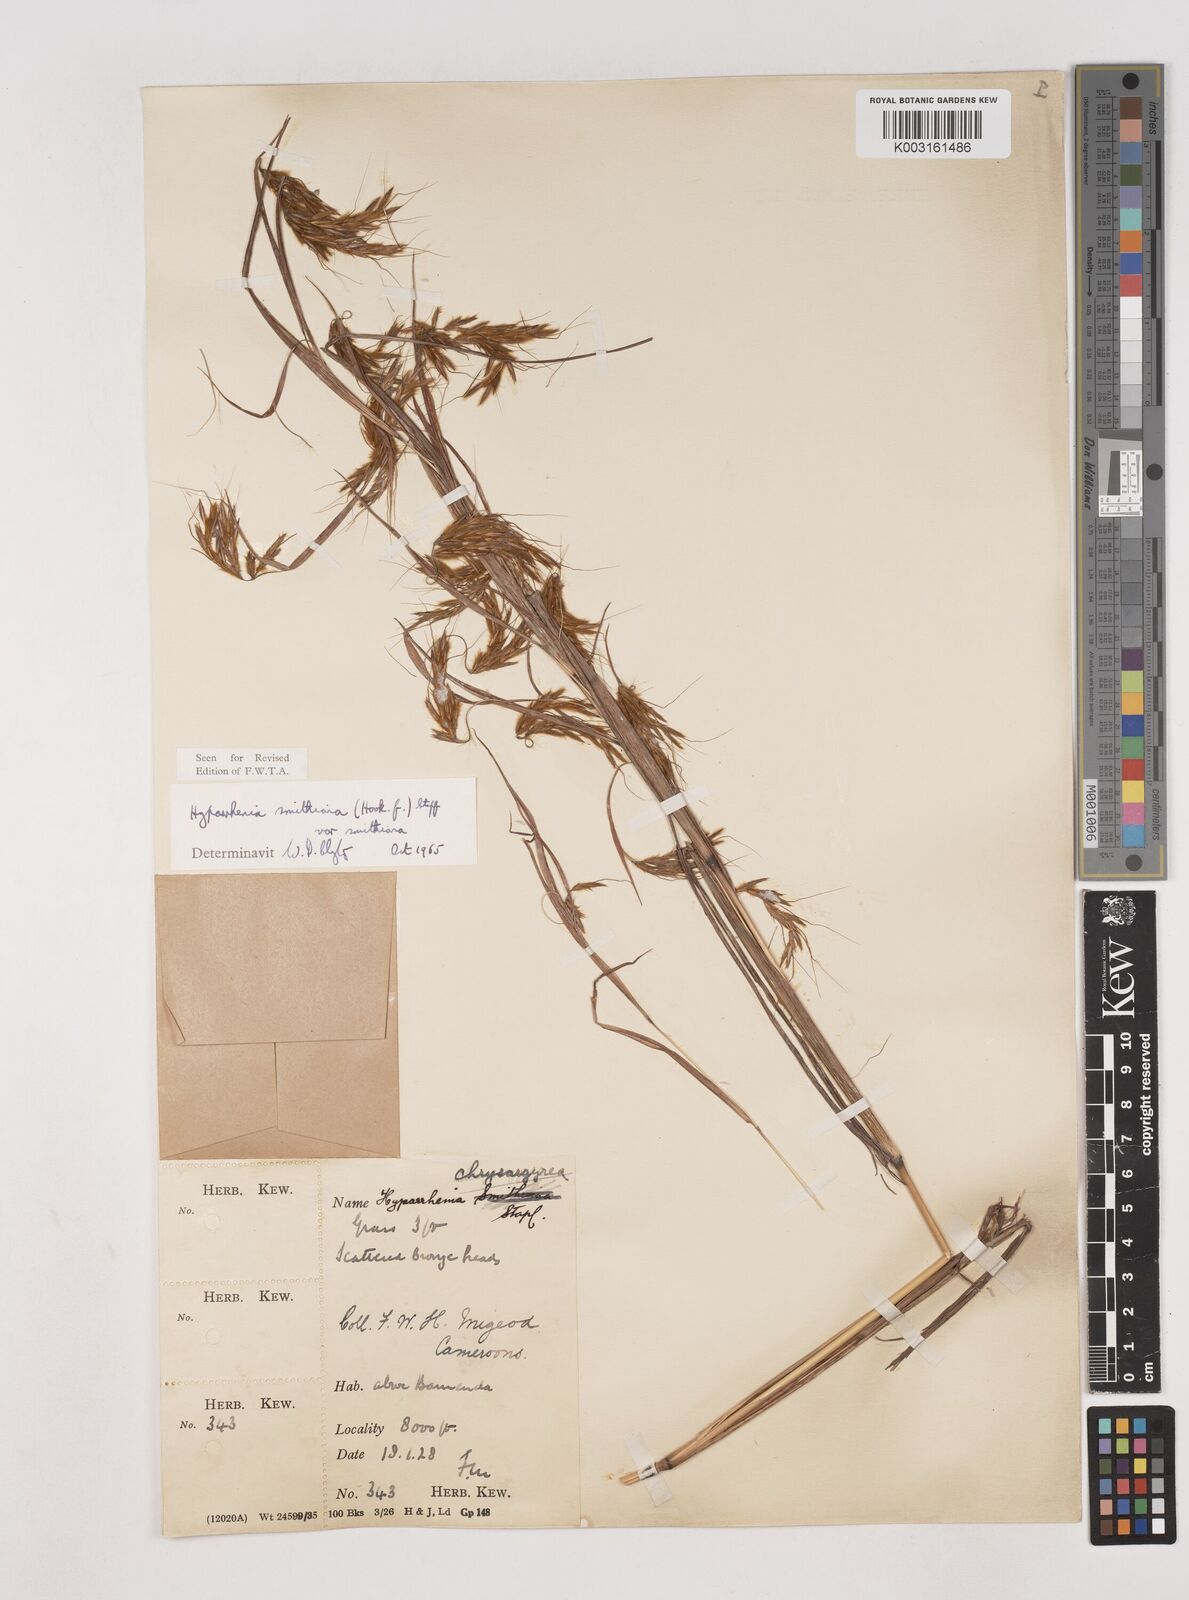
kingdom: Plantae
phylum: Tracheophyta
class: Liliopsida
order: Poales
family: Poaceae
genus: Hyparrhenia
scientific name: Hyparrhenia smithiana
